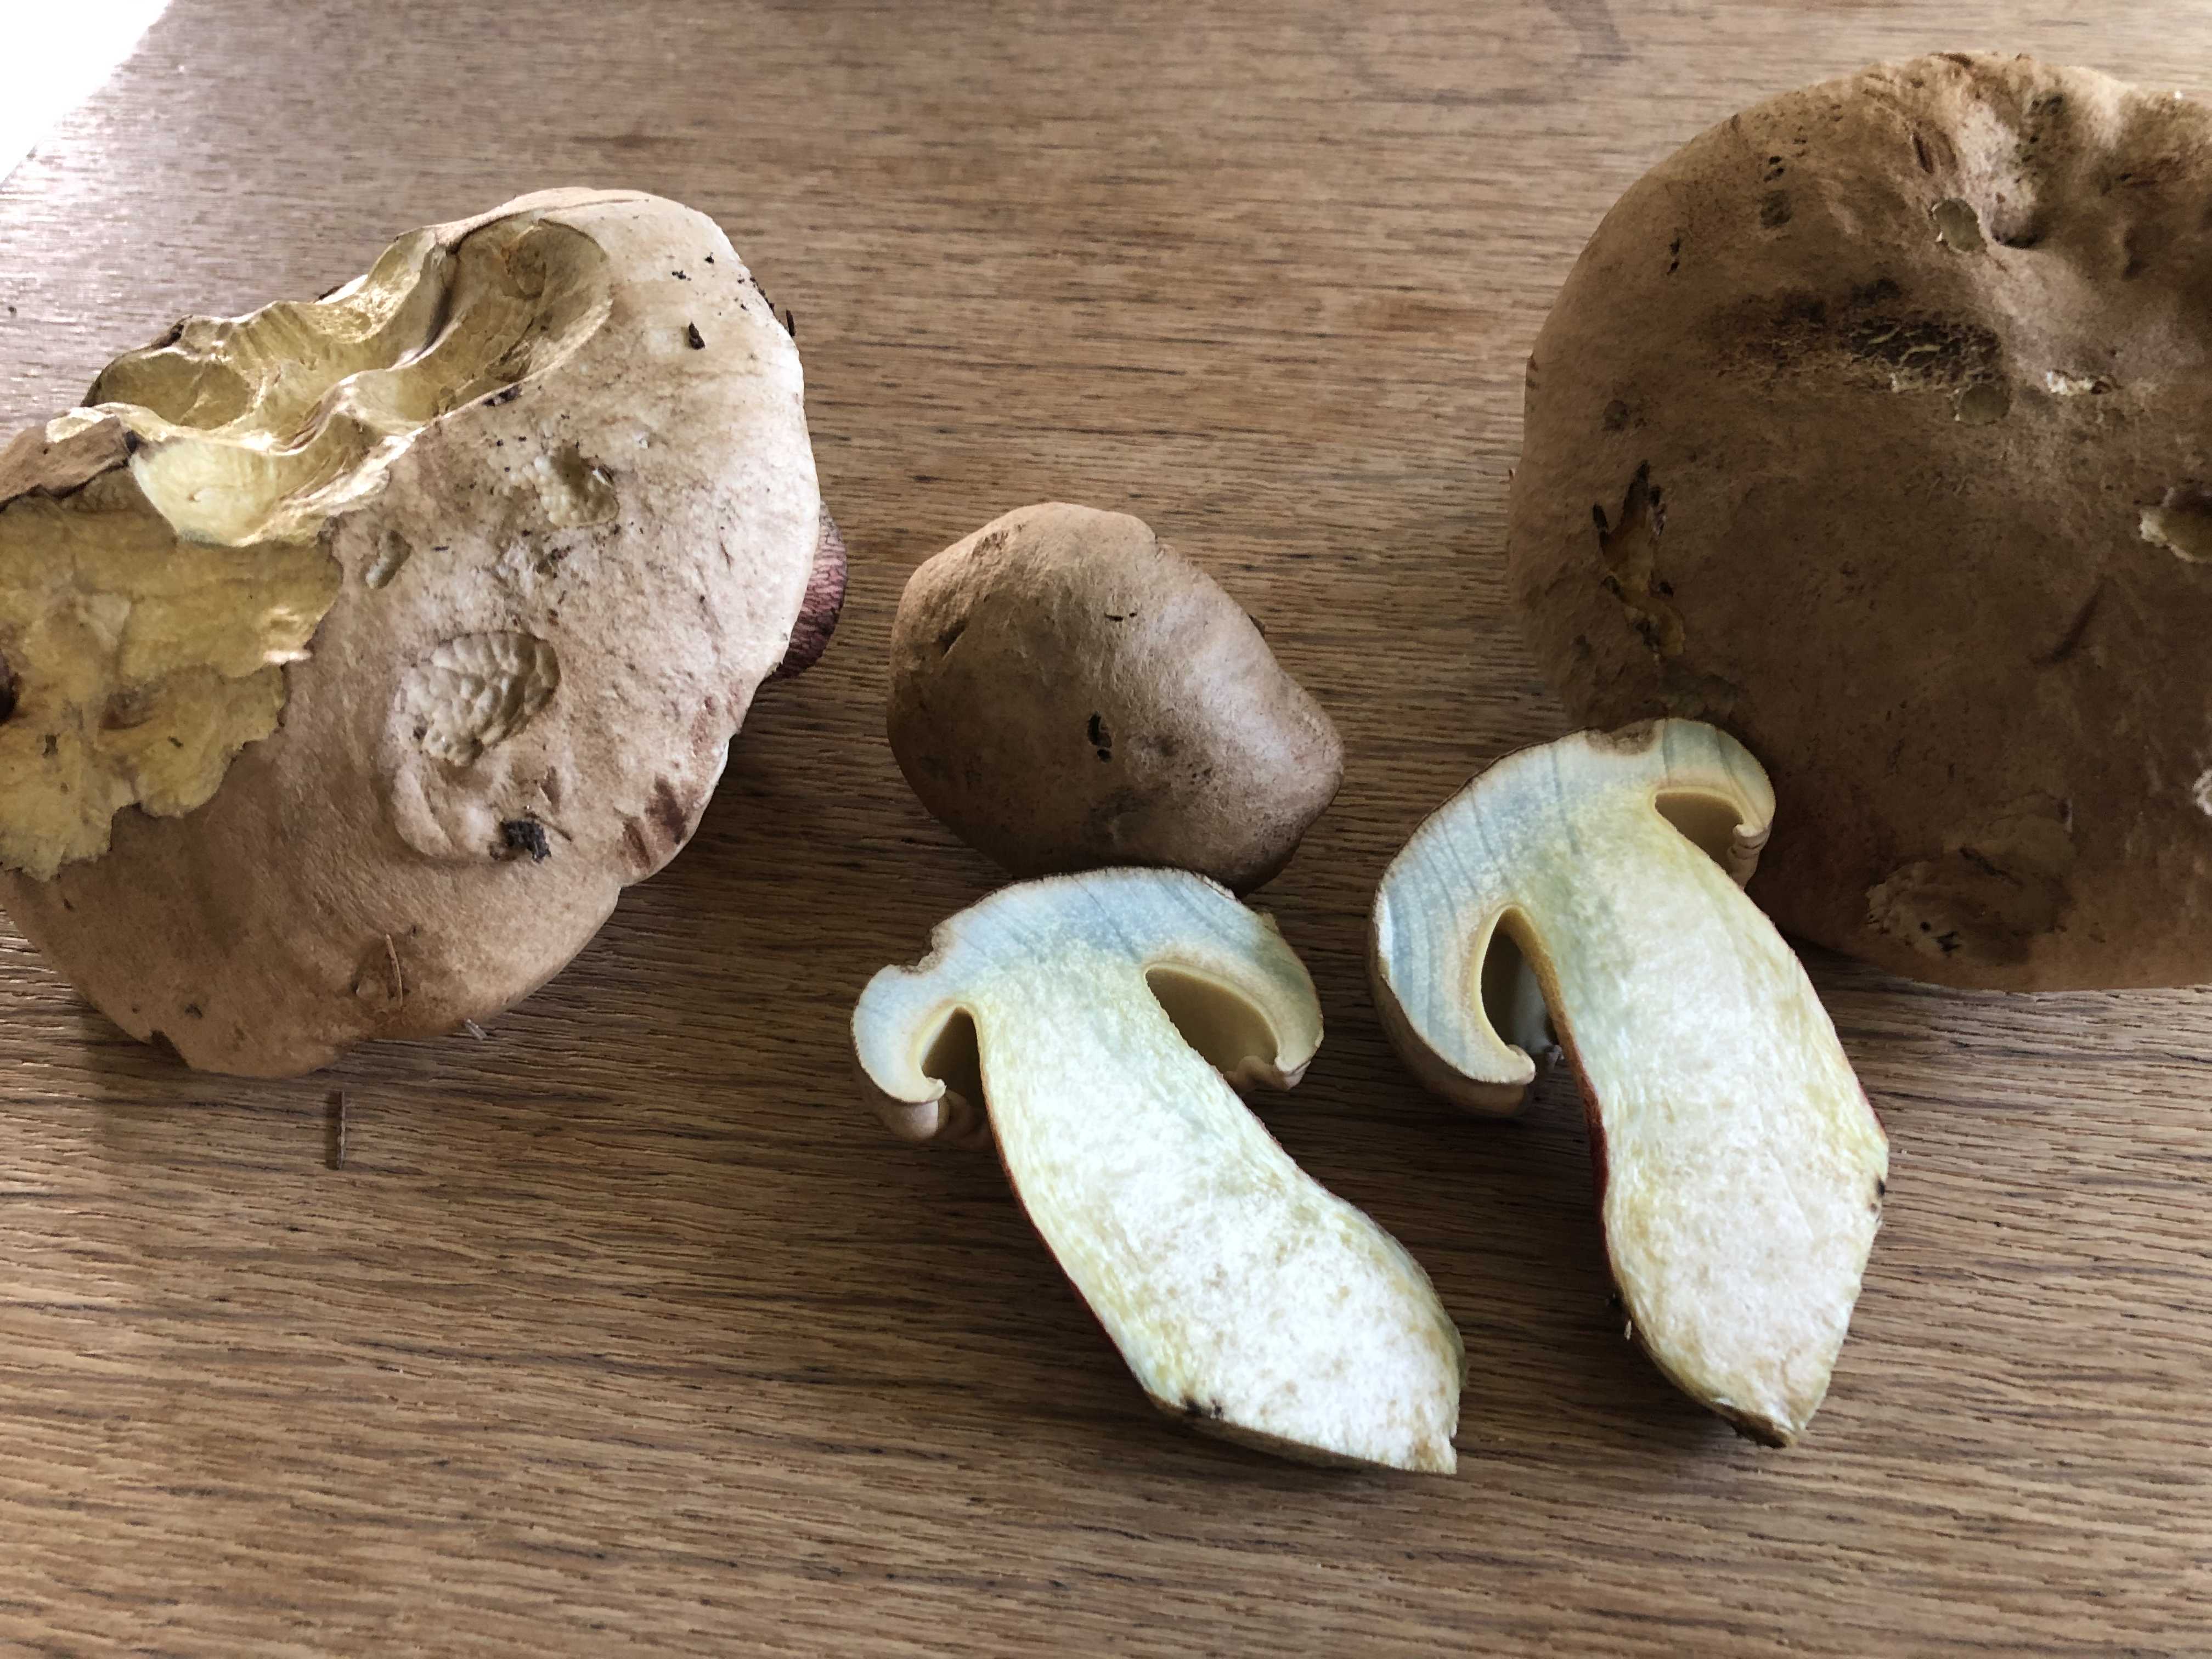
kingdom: Fungi
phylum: Basidiomycota
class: Agaricomycetes
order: Boletales
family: Boletaceae
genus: Caloboletus
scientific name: Caloboletus calopus
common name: skønfodet rørhat
